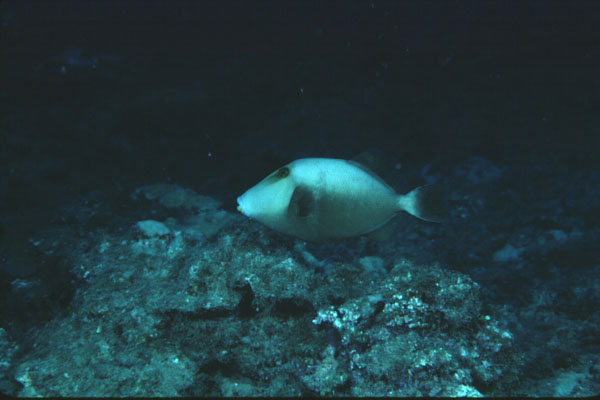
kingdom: Animalia
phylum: Chordata
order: Tetraodontiformes
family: Balistidae
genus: Sufflamen
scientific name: Sufflamen fraenatum
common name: Bridle triggerfish
